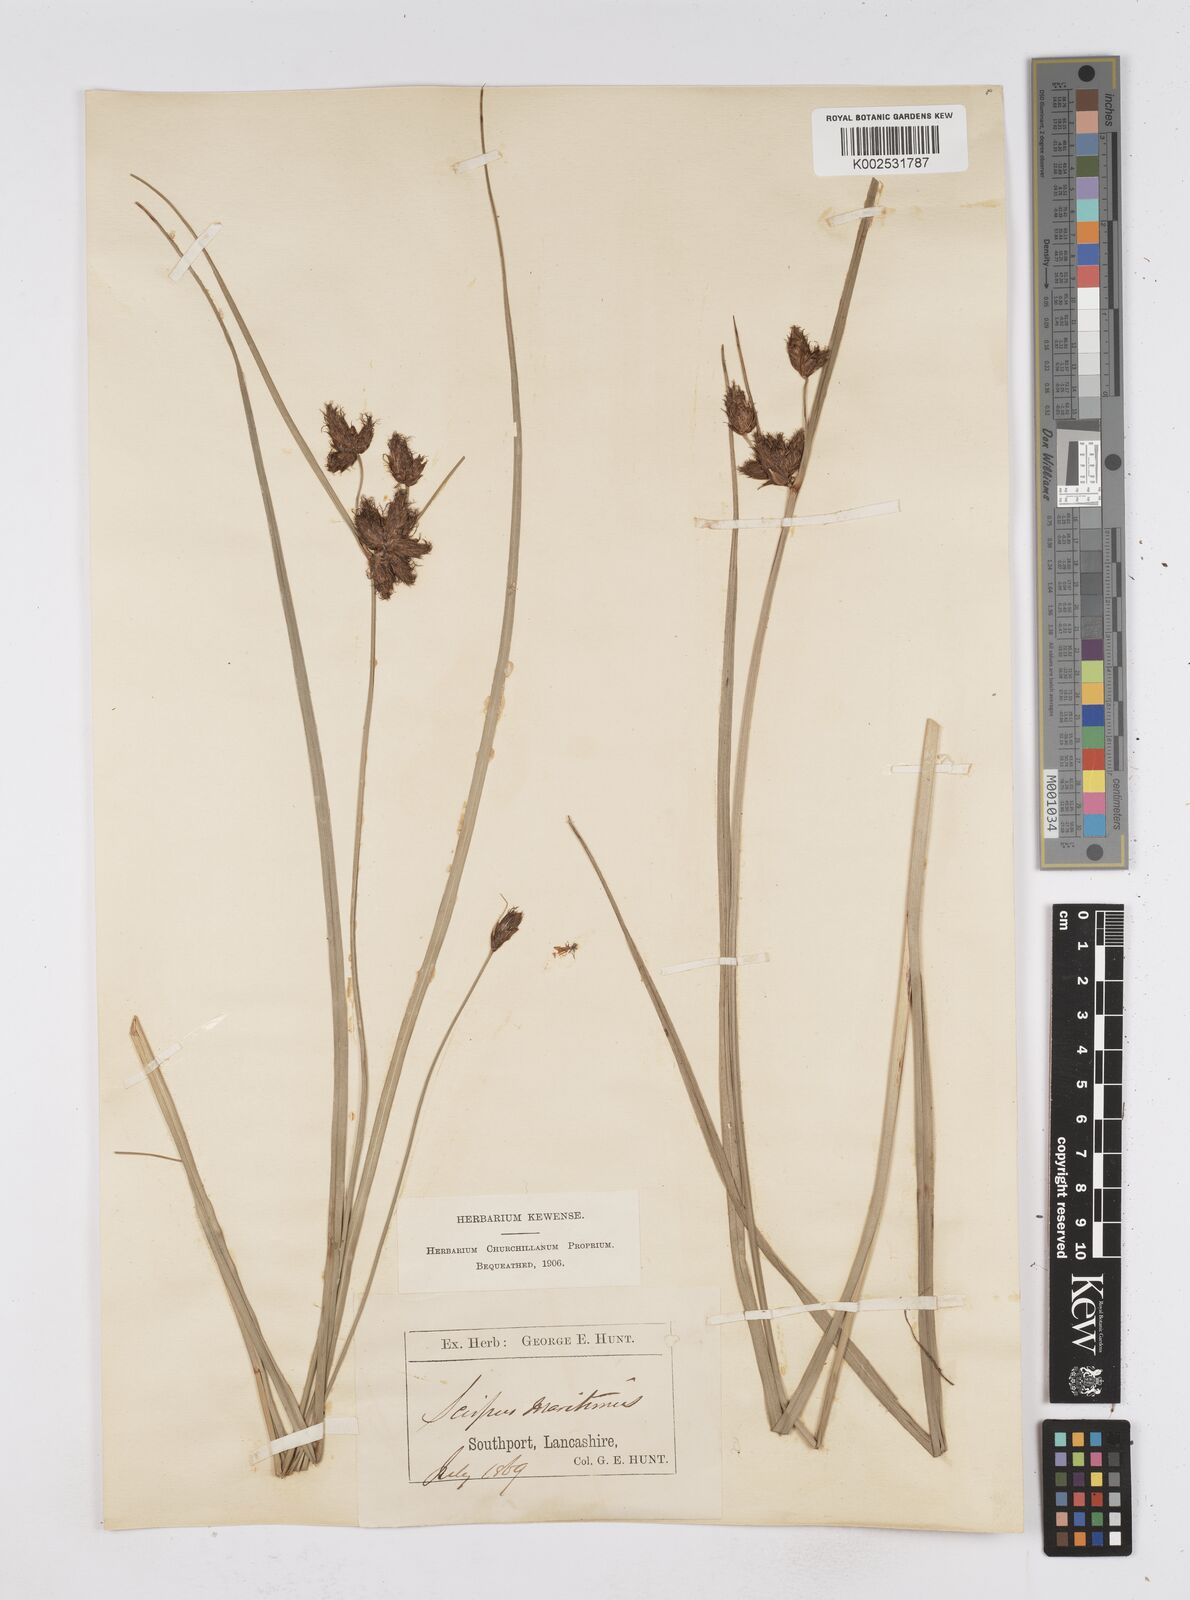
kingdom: Plantae
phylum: Tracheophyta
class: Liliopsida
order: Poales
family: Cyperaceae
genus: Bolboschoenus
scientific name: Bolboschoenus maritimus
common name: Sea club-rush
